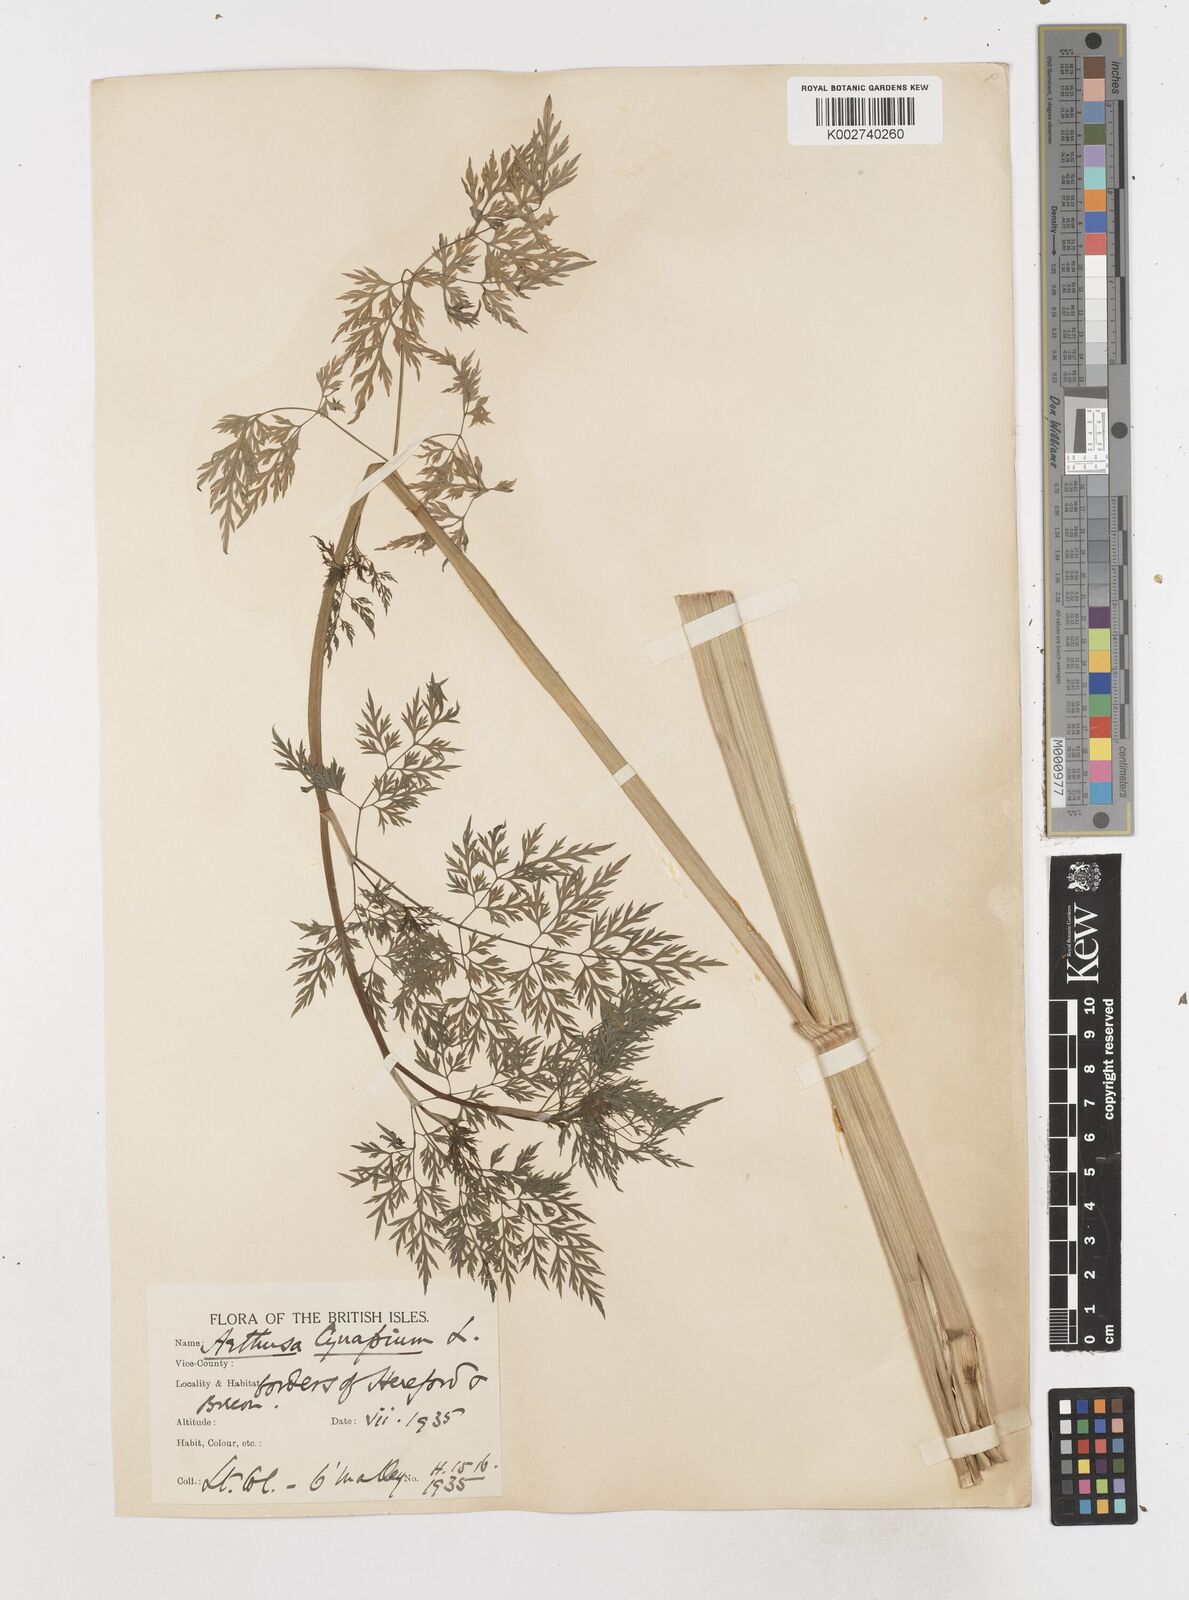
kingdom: Plantae
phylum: Tracheophyta
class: Magnoliopsida
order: Apiales
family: Apiaceae
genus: Aethusa
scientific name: Aethusa cynapium
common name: Fool's parsley
